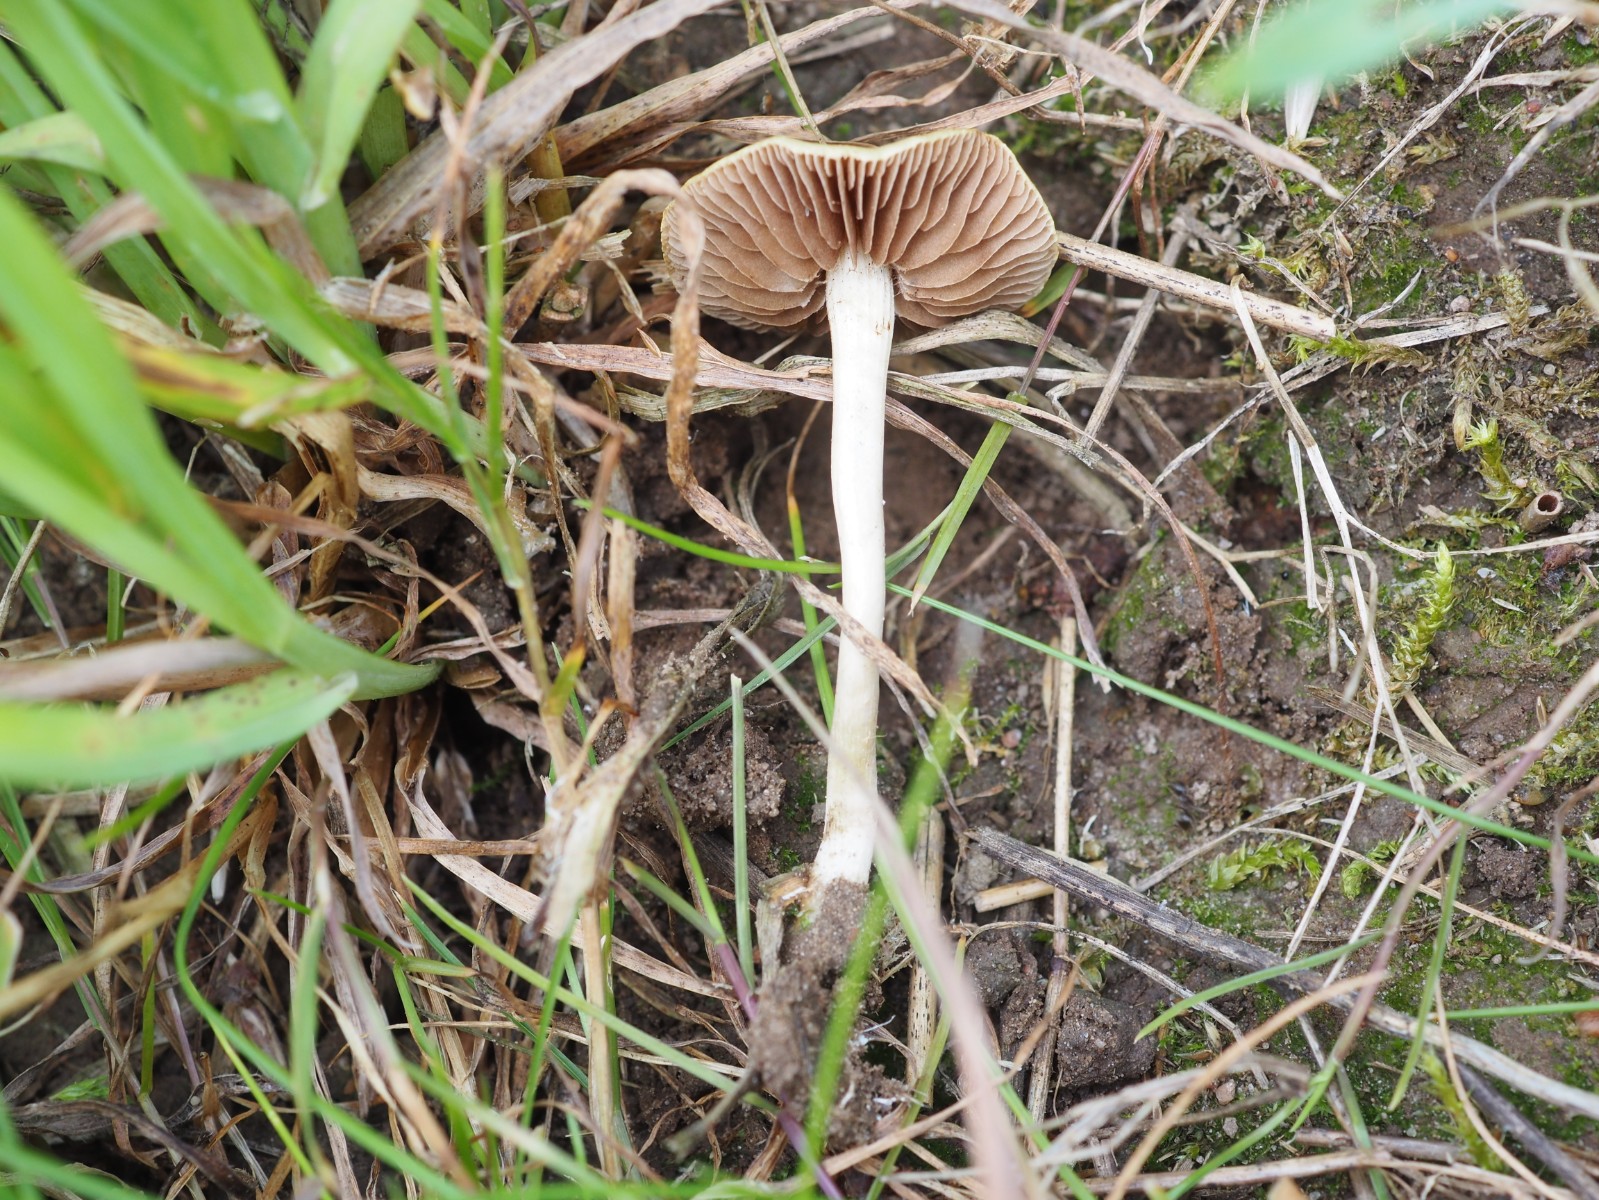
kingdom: Fungi
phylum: Basidiomycota
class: Agaricomycetes
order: Agaricales
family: Strophariaceae
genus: Agrocybe
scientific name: Agrocybe pediades
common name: almindelig agerhat
